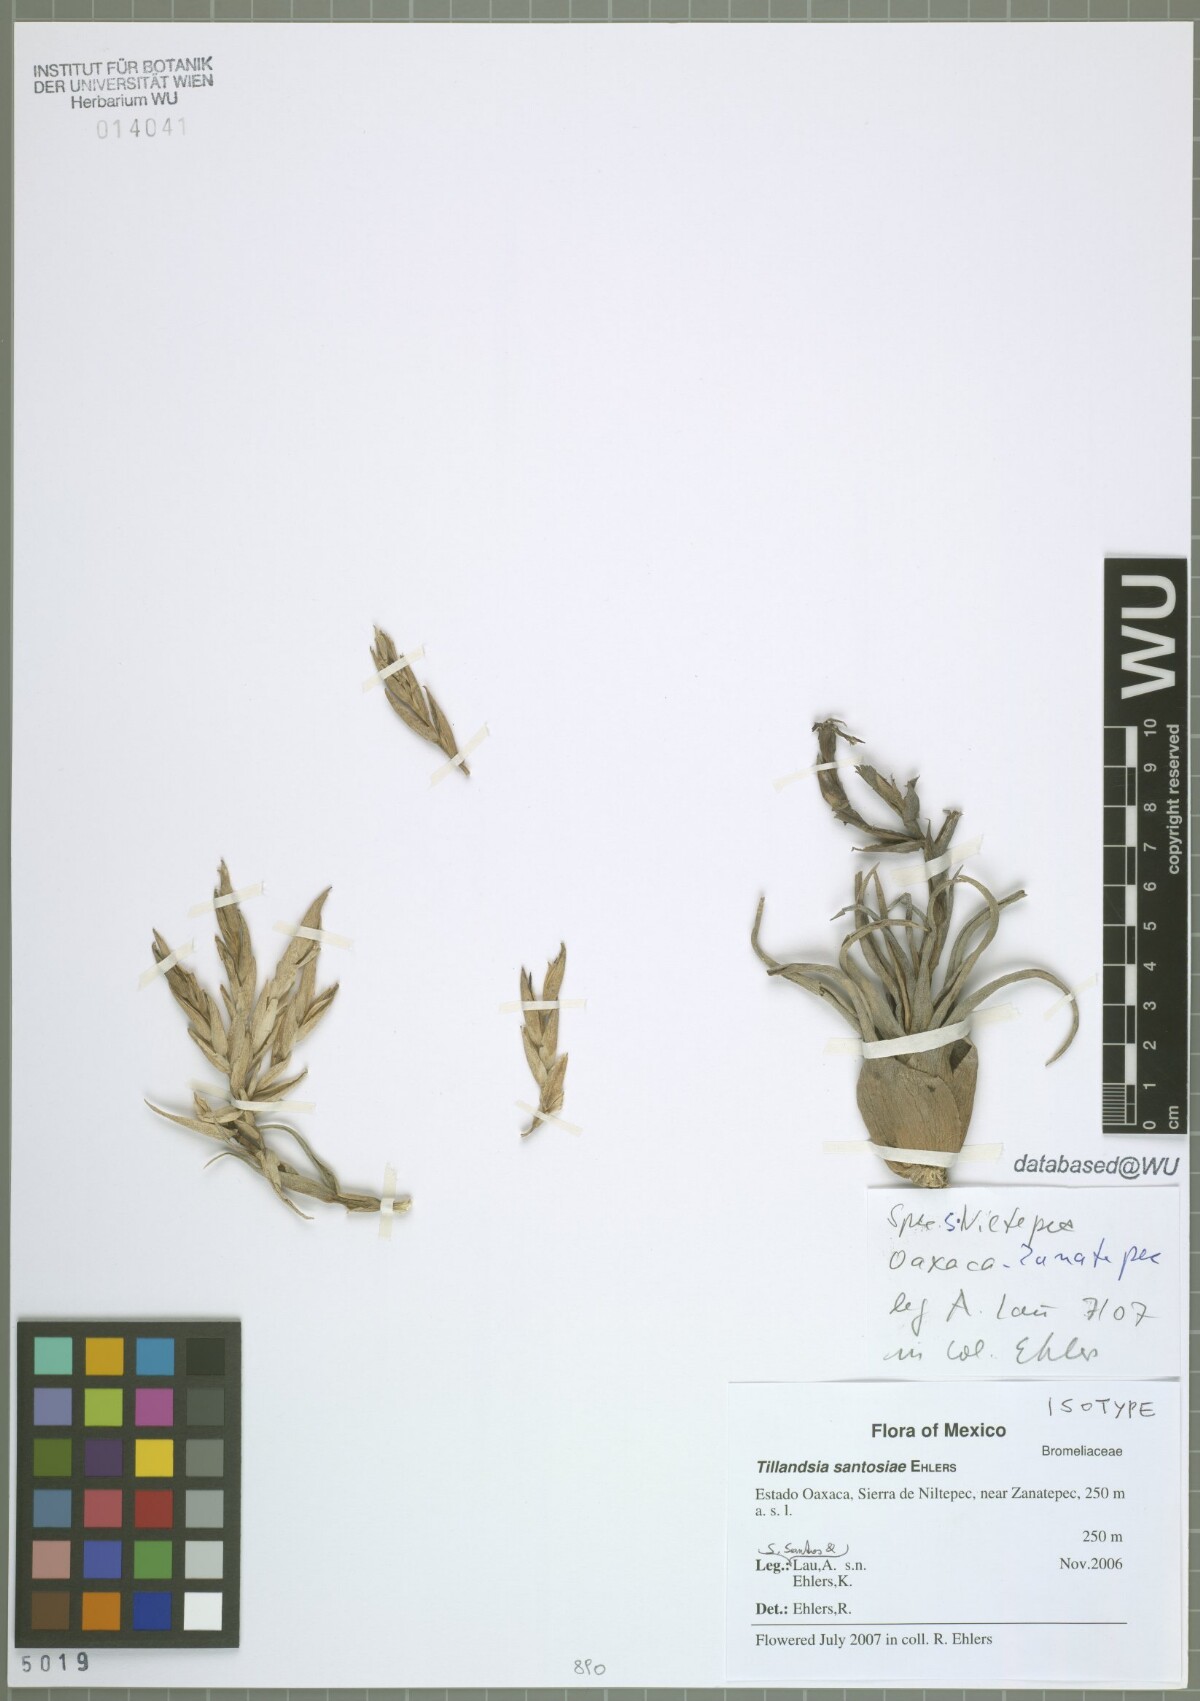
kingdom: Plantae
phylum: Tracheophyta
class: Liliopsida
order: Poales
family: Bromeliaceae
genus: Tillandsia
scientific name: Tillandsia santosiae
